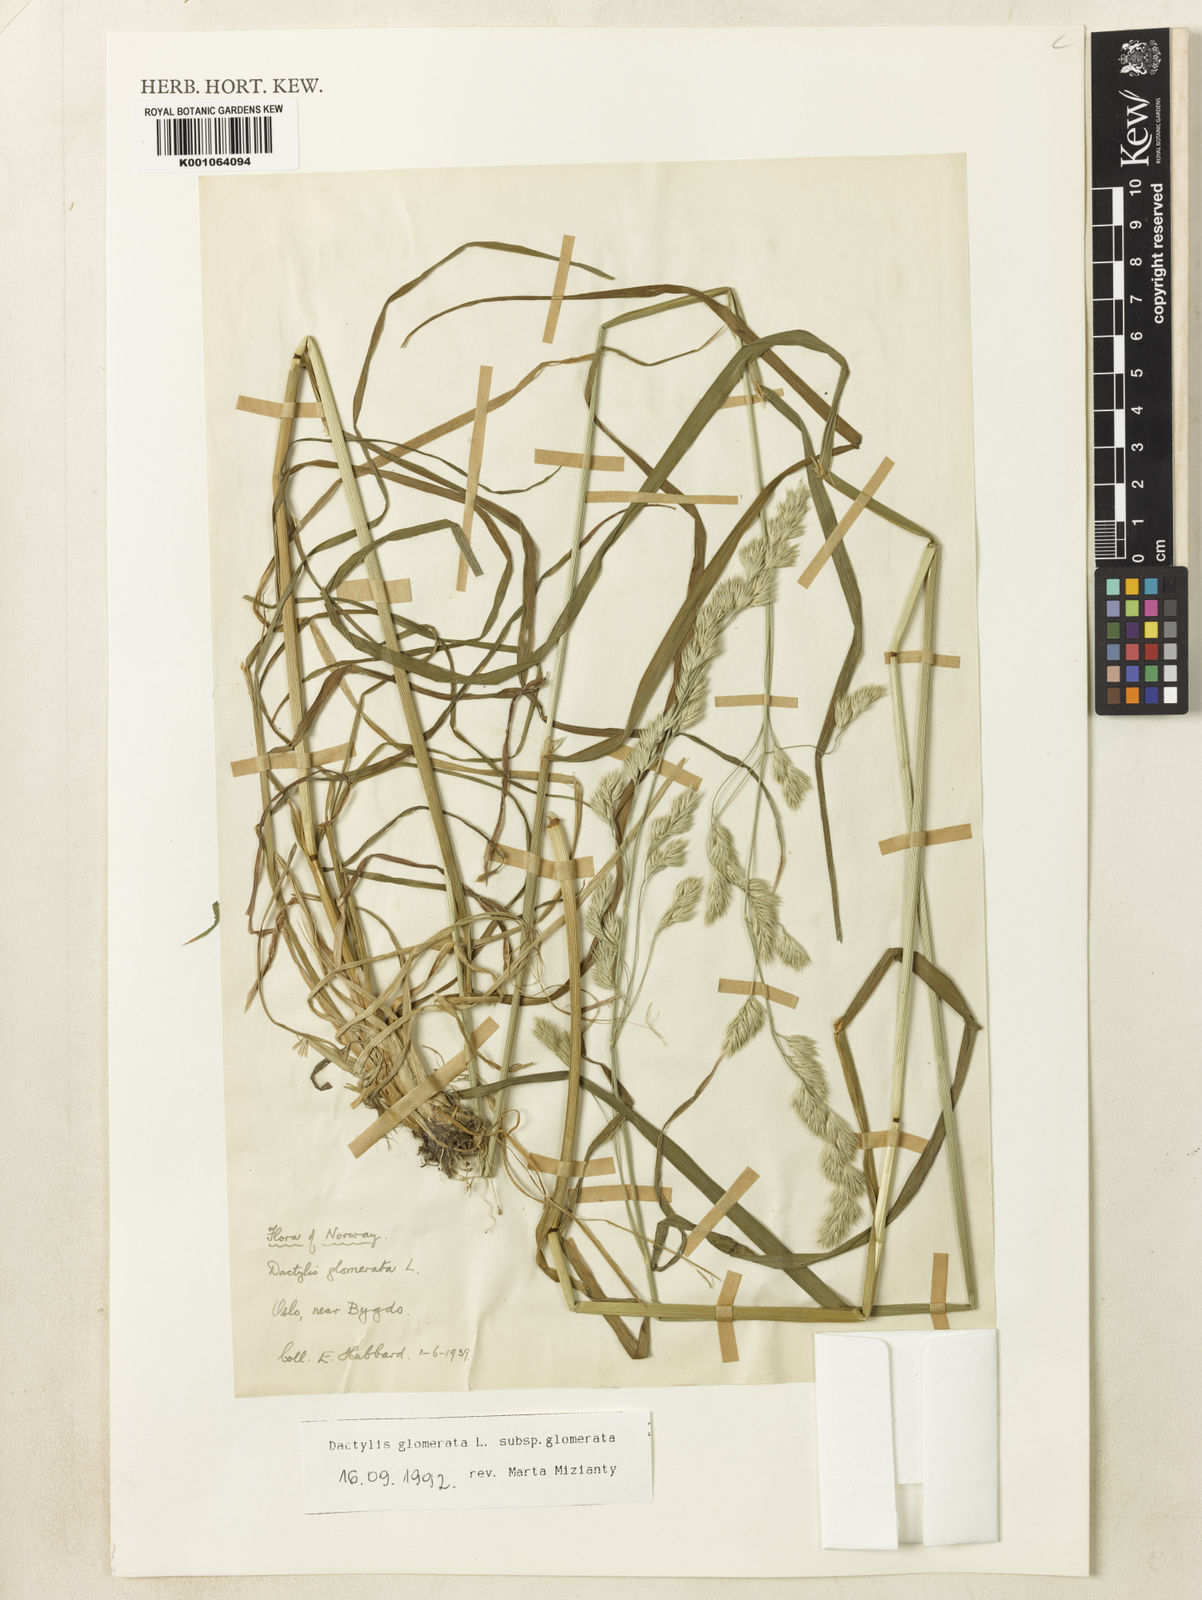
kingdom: Plantae
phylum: Tracheophyta
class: Liliopsida
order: Poales
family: Poaceae
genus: Dactylis
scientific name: Dactylis glomerata
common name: Orchardgrass
